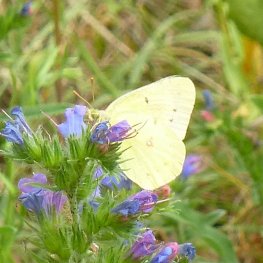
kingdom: Animalia
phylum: Arthropoda
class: Insecta
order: Lepidoptera
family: Pieridae
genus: Colias
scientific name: Colias philodice
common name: Clouded Sulphur
